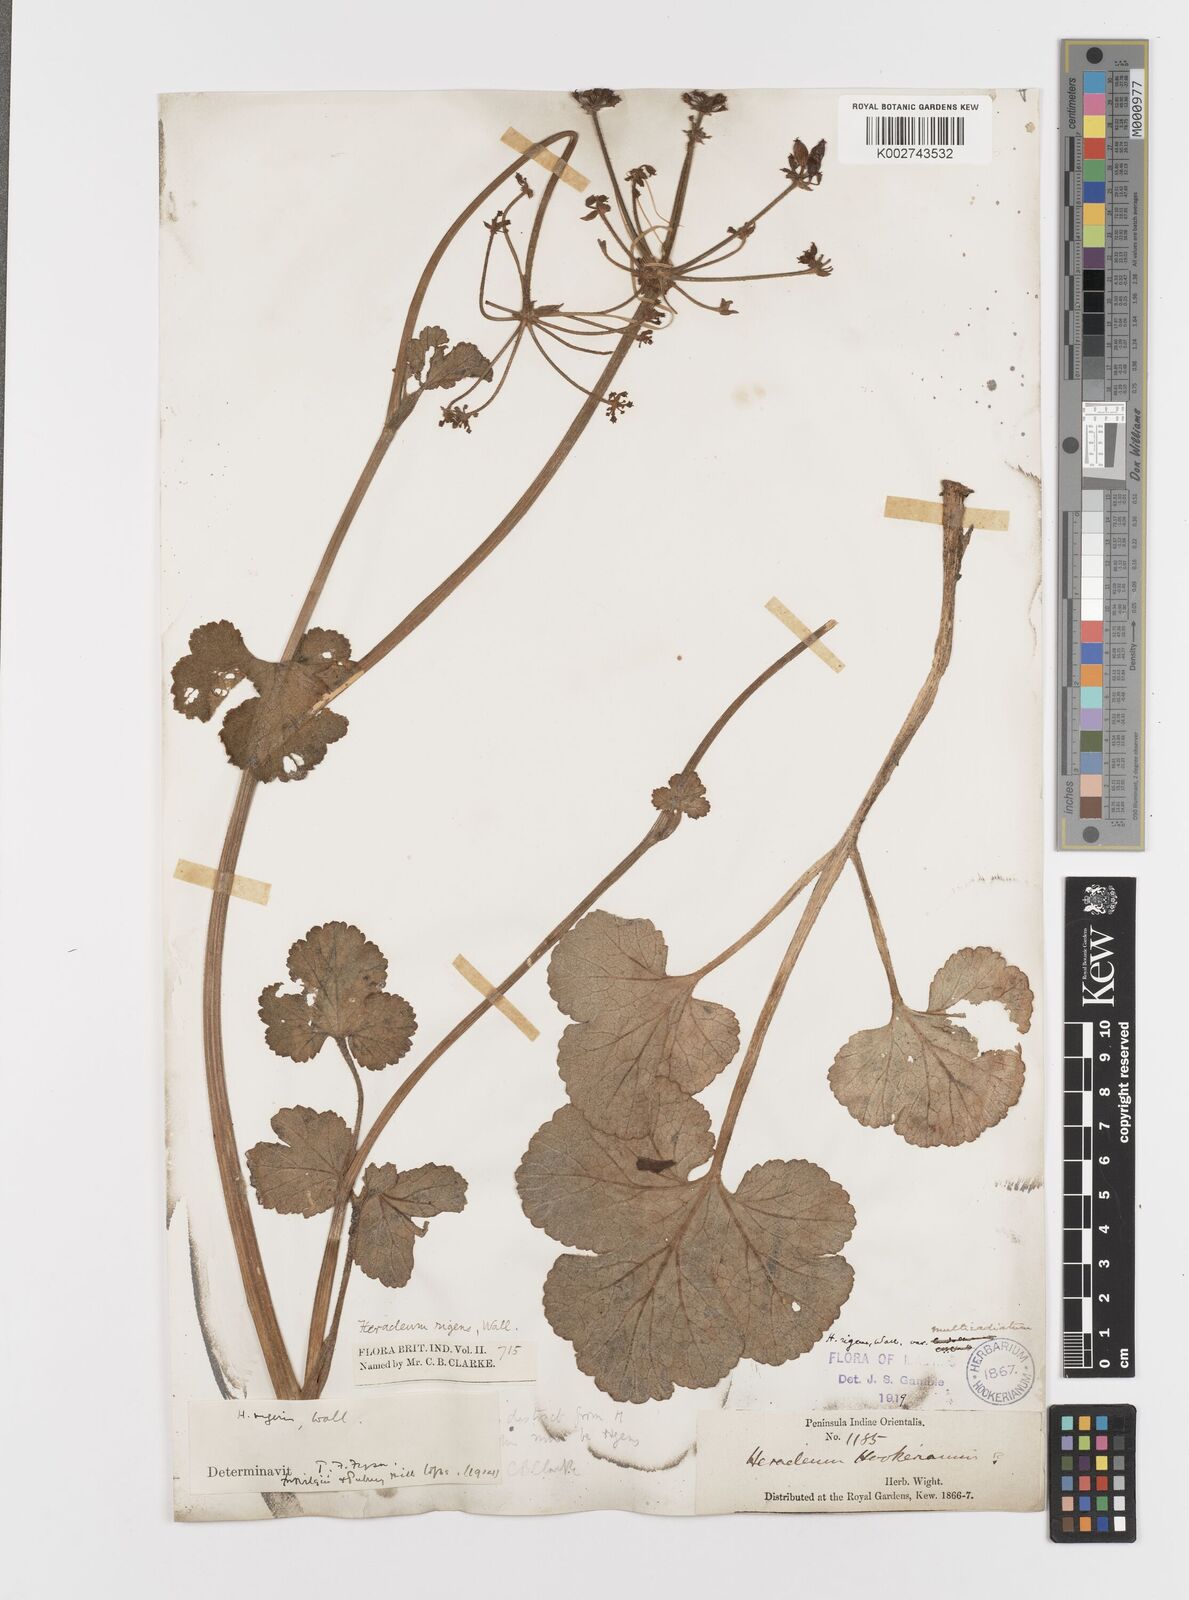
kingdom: Plantae
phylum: Tracheophyta
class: Magnoliopsida
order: Apiales
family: Apiaceae
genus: Tetrataenium
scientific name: Tetrataenium rigens
